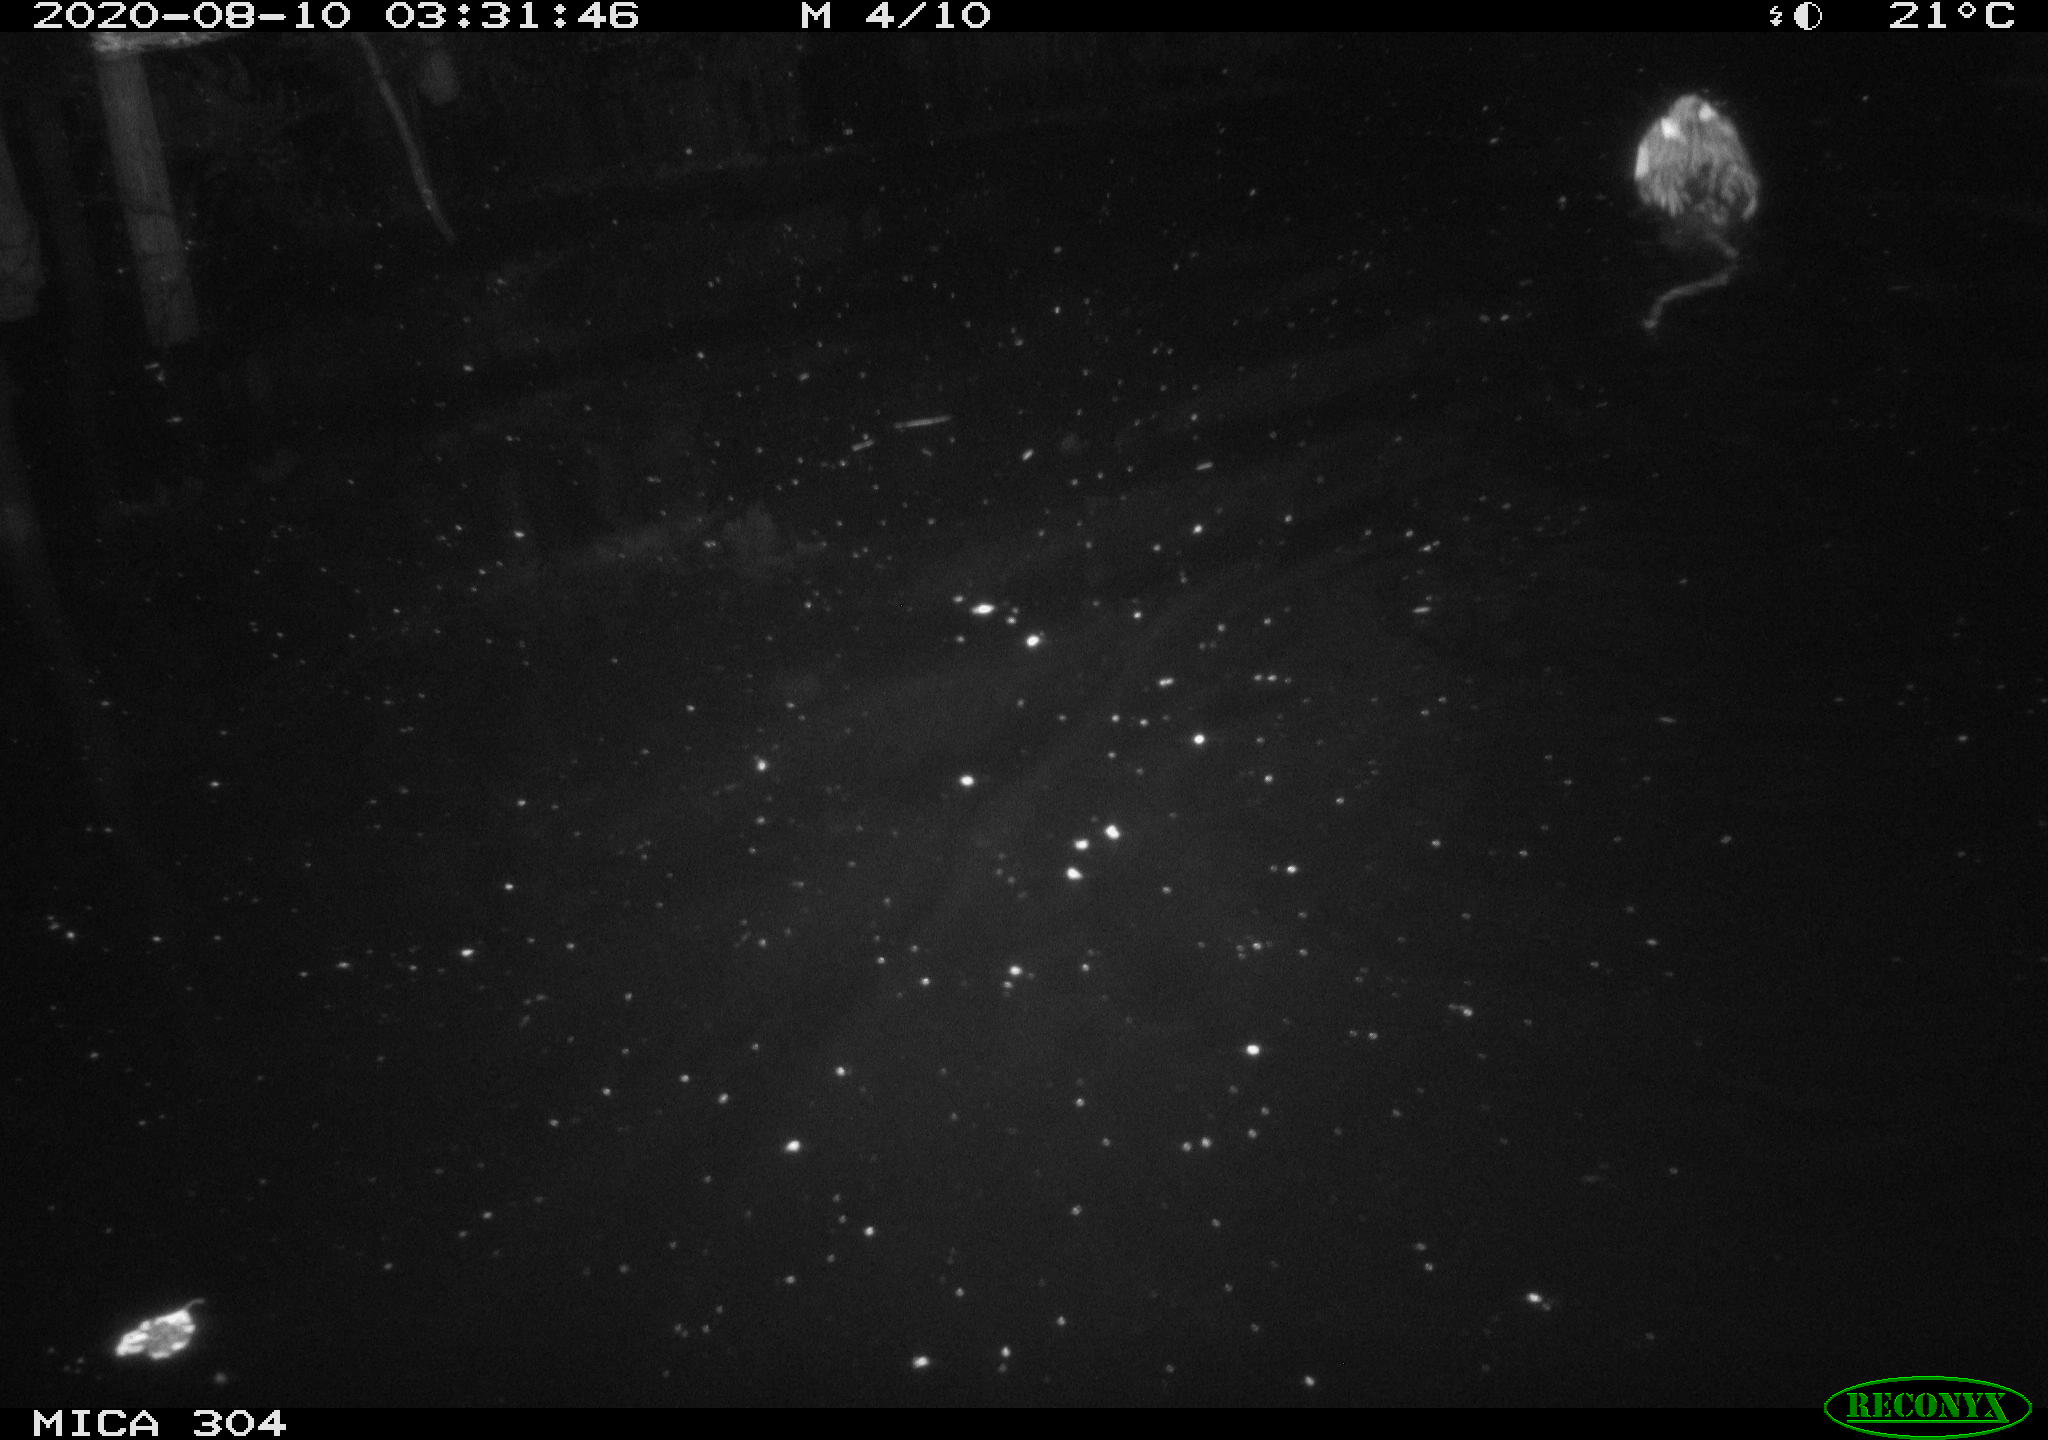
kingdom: Animalia
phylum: Chordata
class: Mammalia
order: Rodentia
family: Cricetidae
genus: Ondatra
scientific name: Ondatra zibethicus
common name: Muskrat
